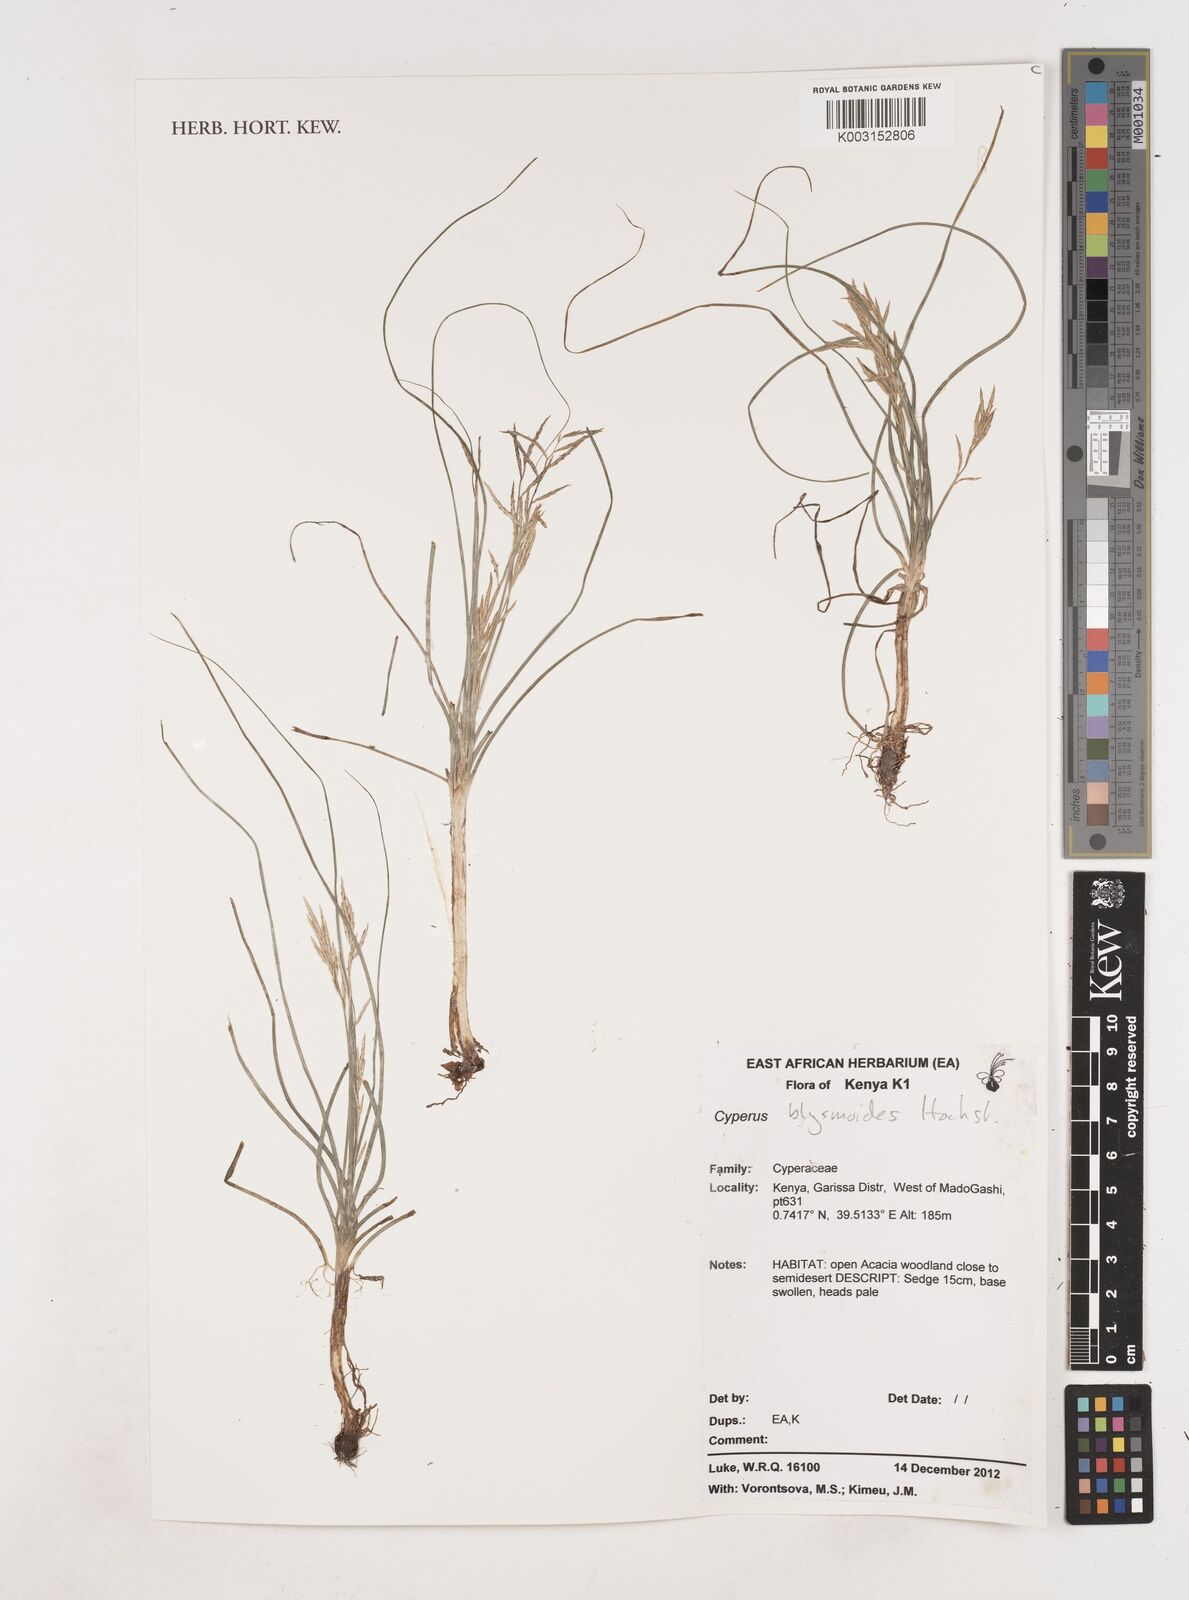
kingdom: Plantae
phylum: Tracheophyta
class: Liliopsida
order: Poales
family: Cyperaceae
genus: Cyperus
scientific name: Cyperus blysmoides
